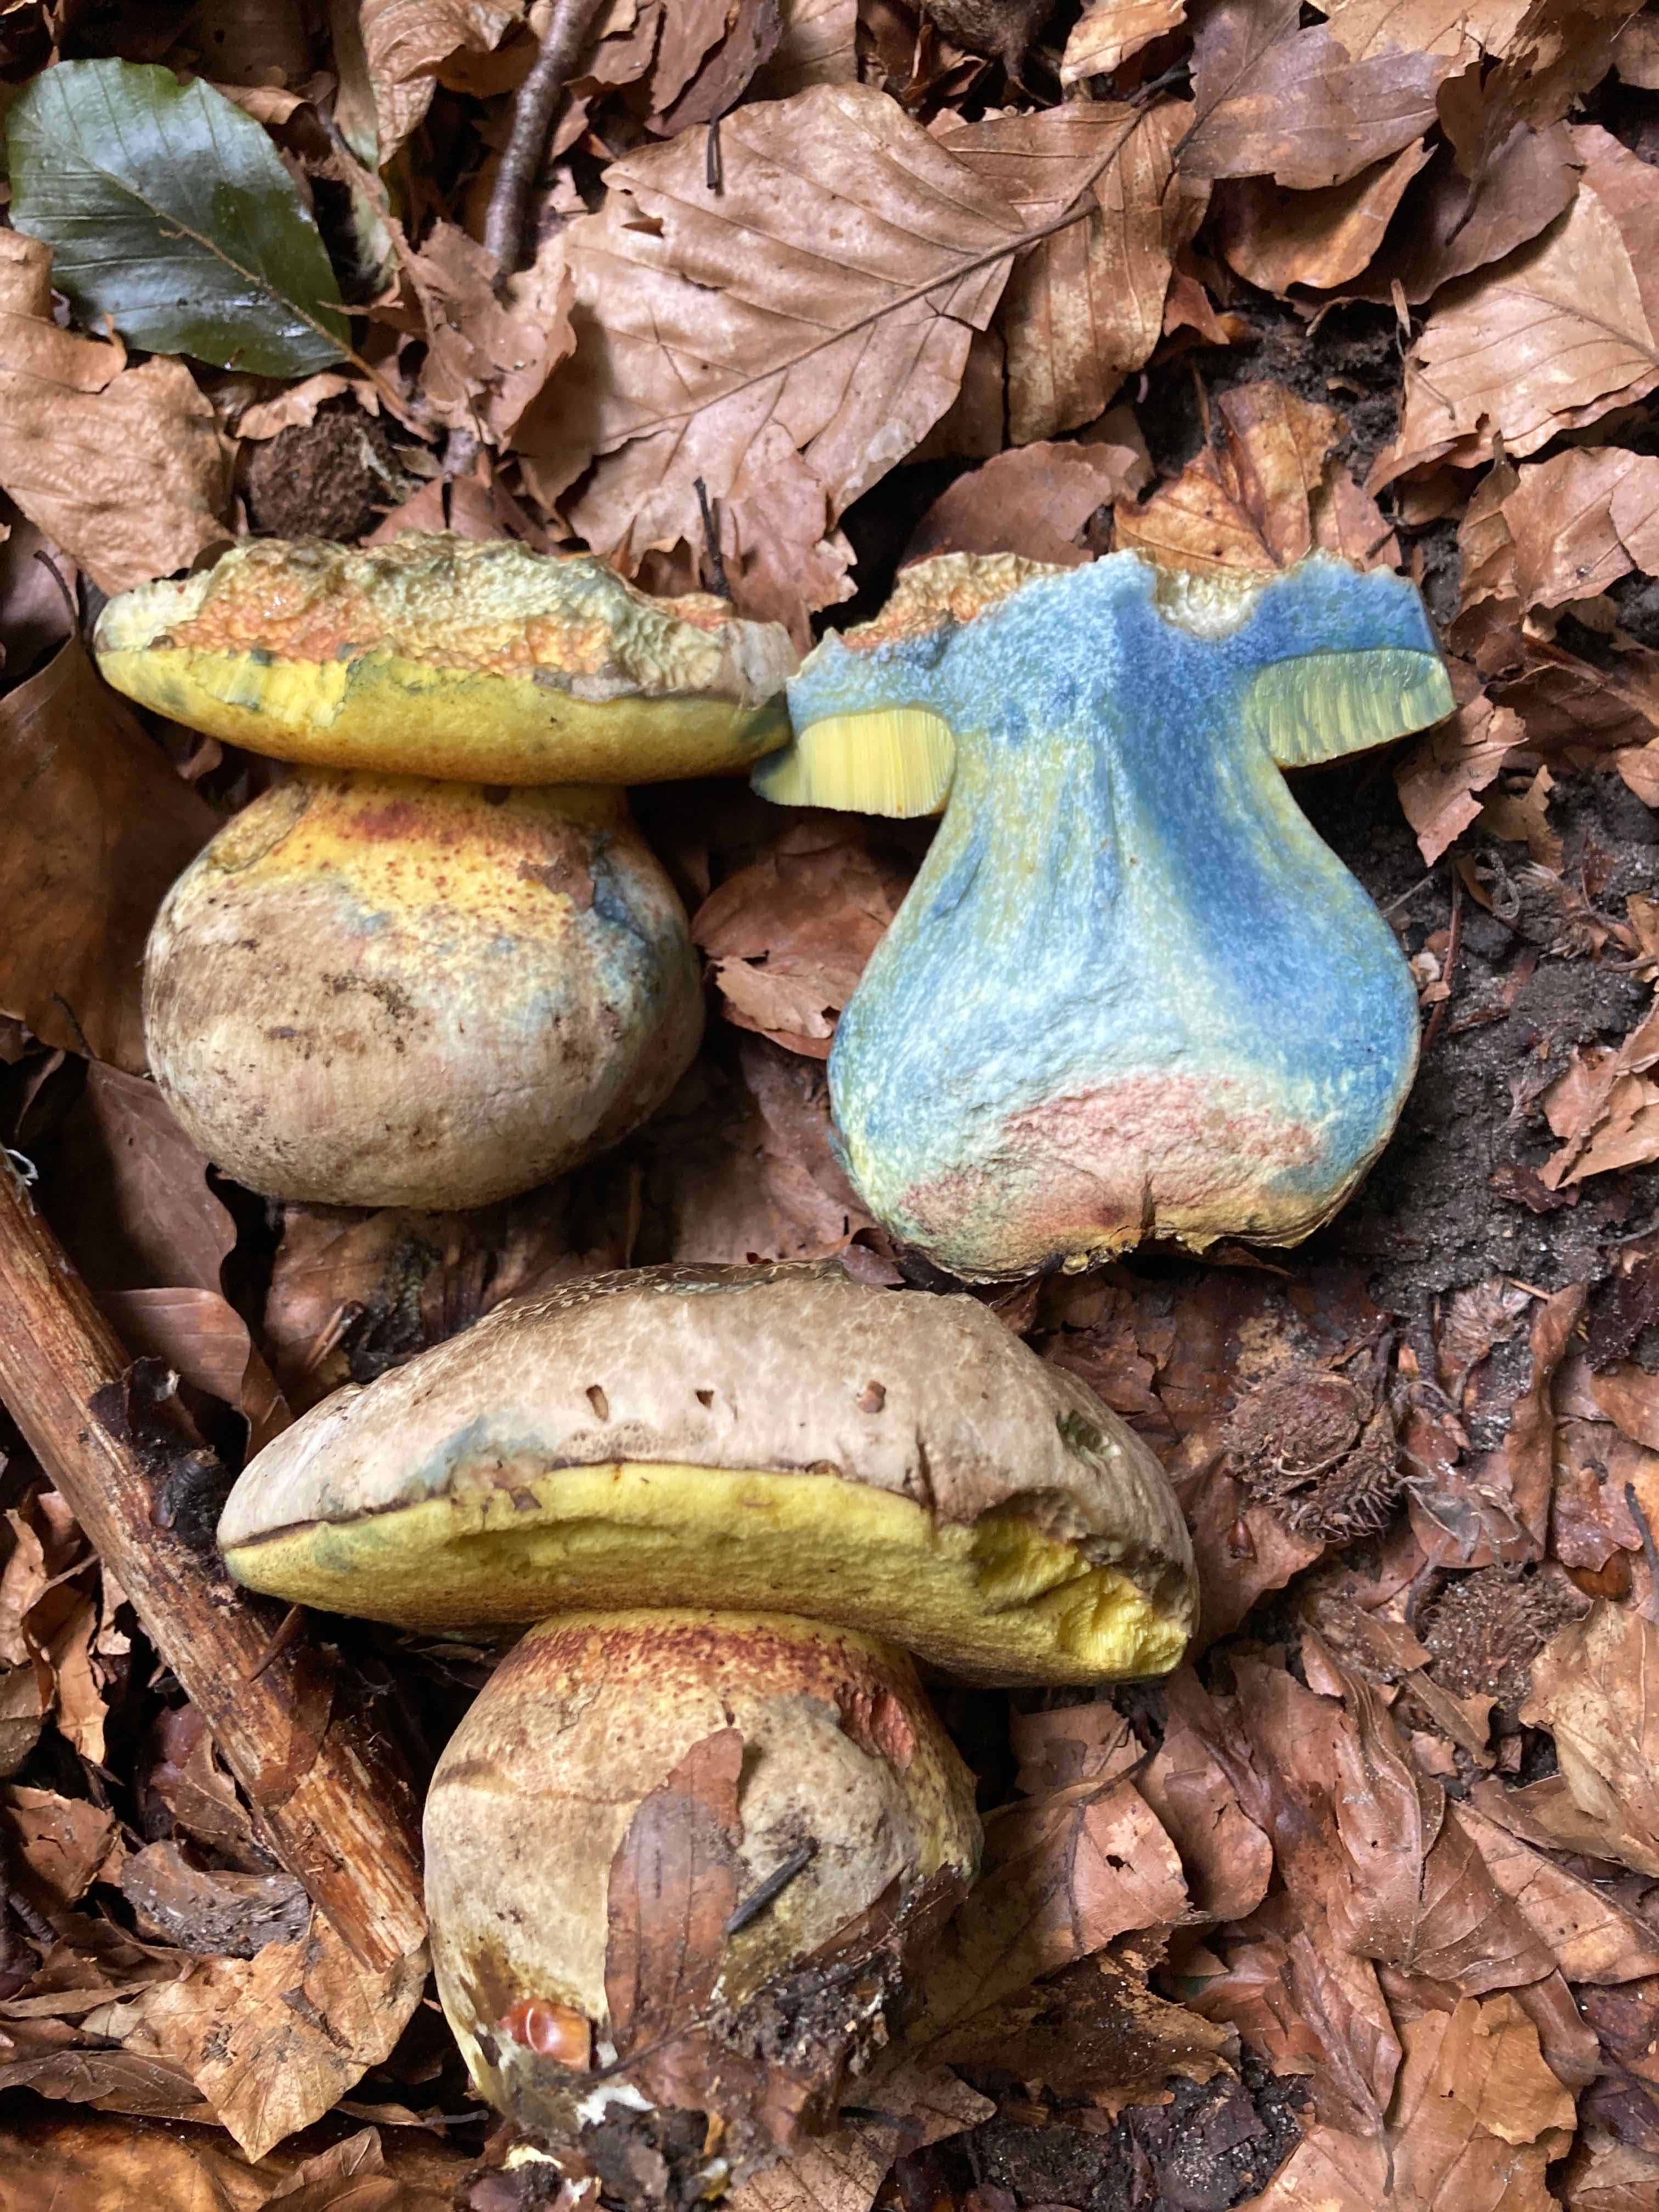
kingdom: Fungi
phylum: Basidiomycota
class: Agaricomycetes
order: Boletales
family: Boletaceae
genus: Caloboletus
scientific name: Caloboletus radicans
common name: rod-rørhat
